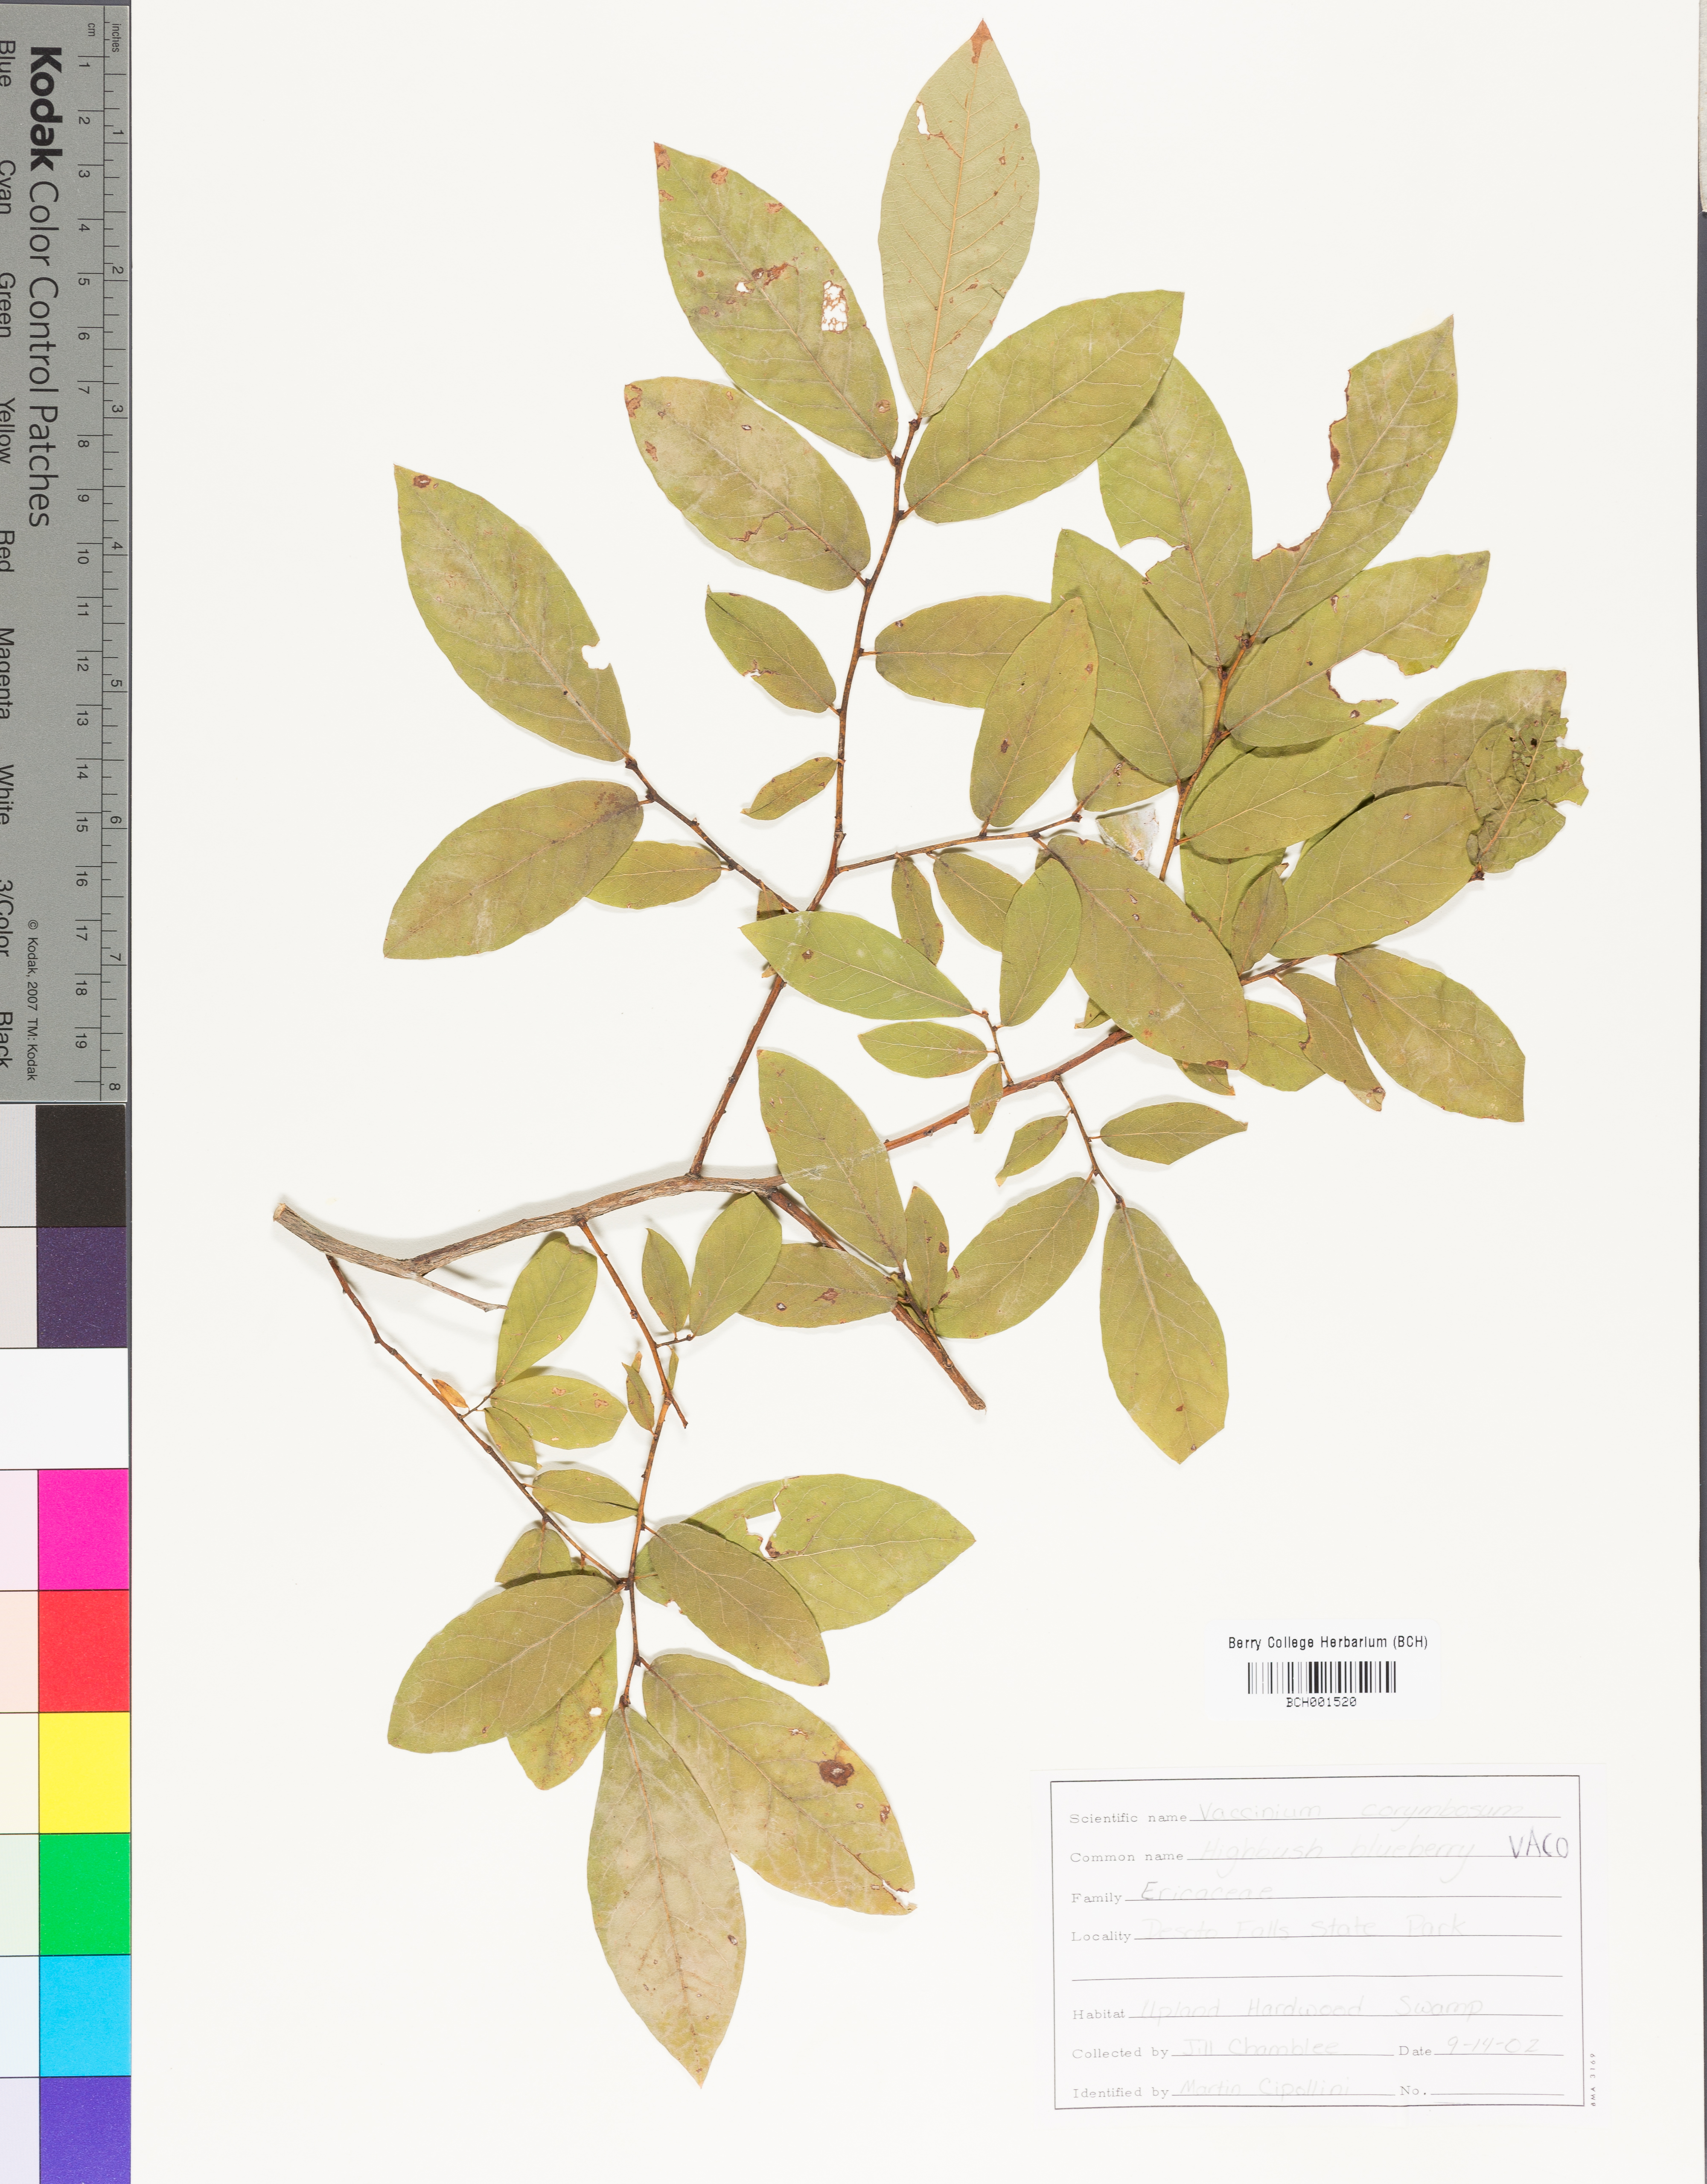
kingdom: Plantae
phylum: Tracheophyta
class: Magnoliopsida
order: Ericales
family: Ericaceae
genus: Vaccinium
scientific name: Vaccinium corymbosum
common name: Blueberry
